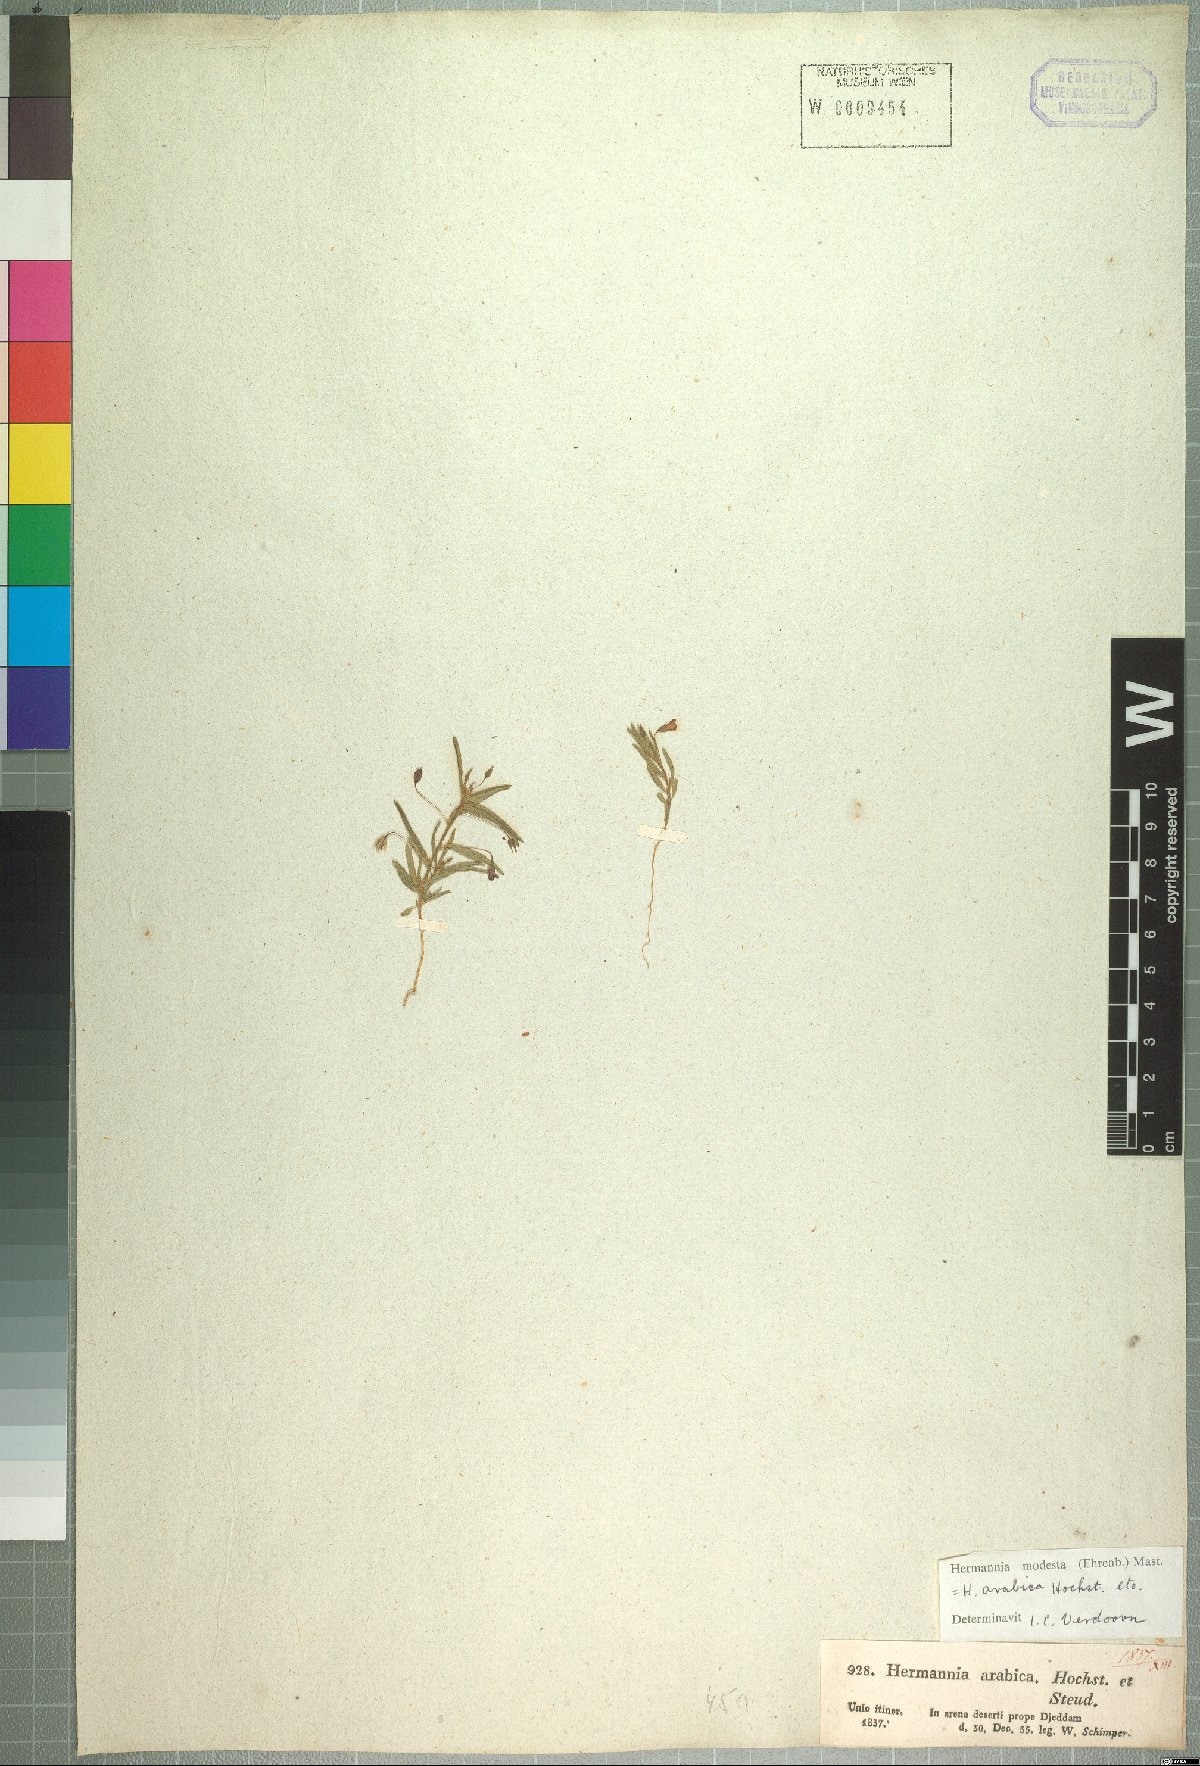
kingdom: Plantae
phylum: Tracheophyta
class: Magnoliopsida
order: Malvales
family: Malvaceae
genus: Hermannia
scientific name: Hermannia modesta
